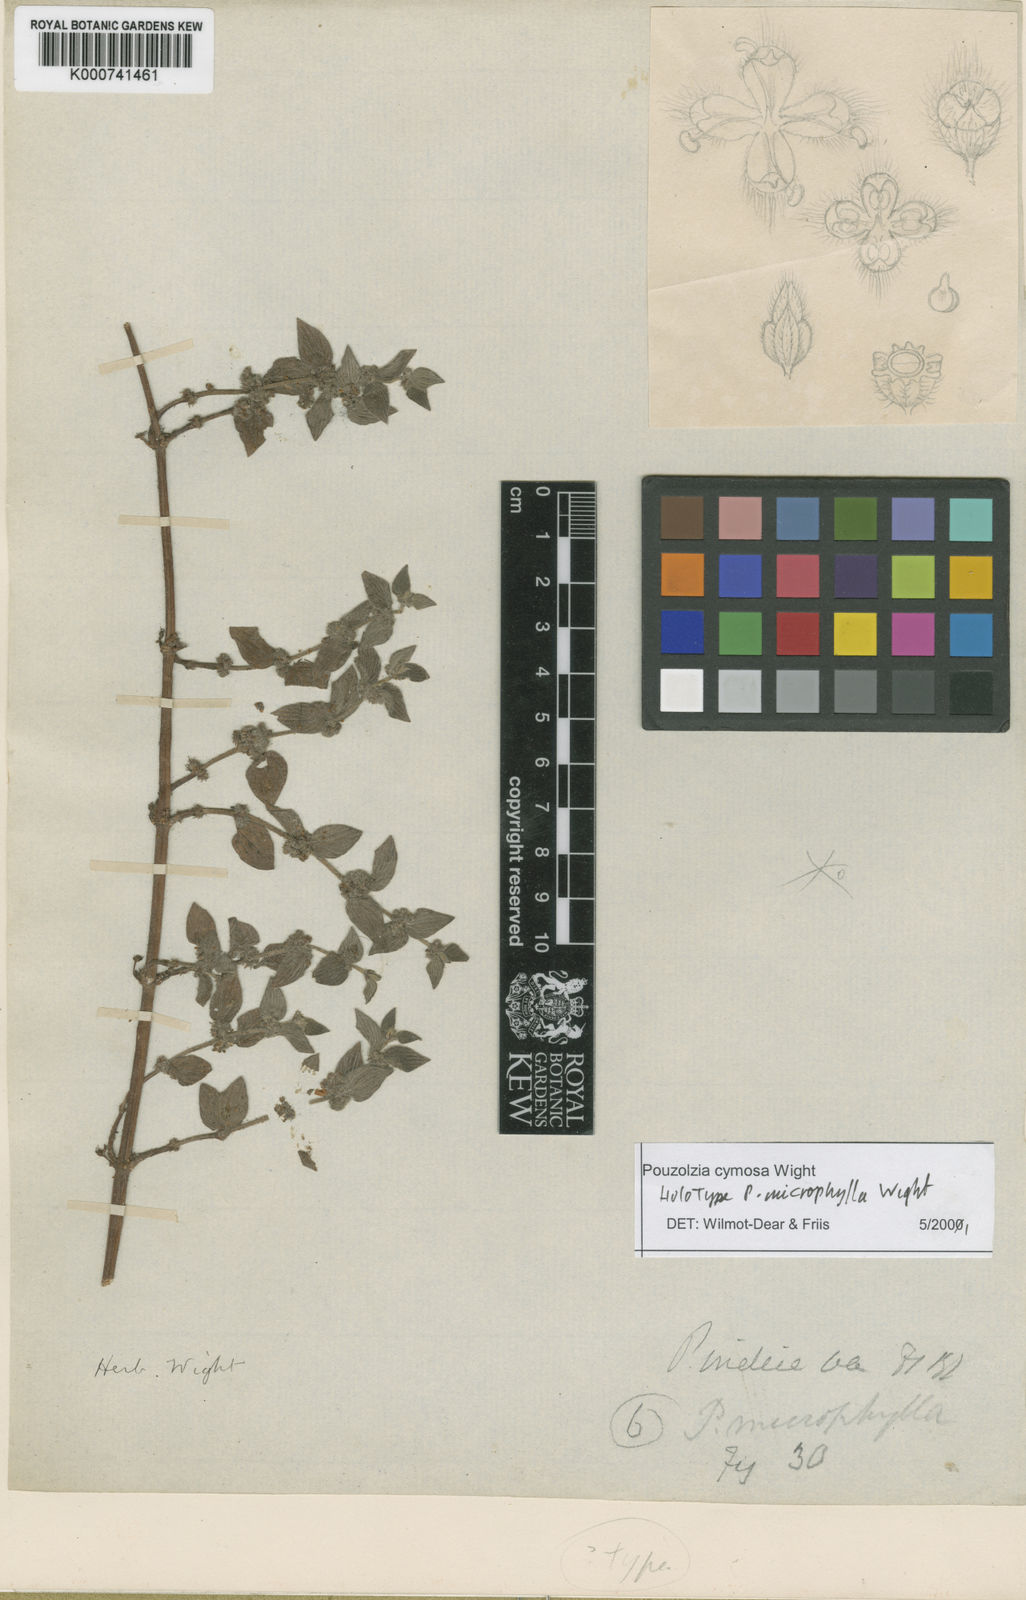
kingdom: Plantae
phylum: Tracheophyta
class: Magnoliopsida
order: Rosales
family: Urticaceae
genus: Pouzolzia
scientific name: Pouzolzia zeylanica
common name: Graceful pouzolzsbush
